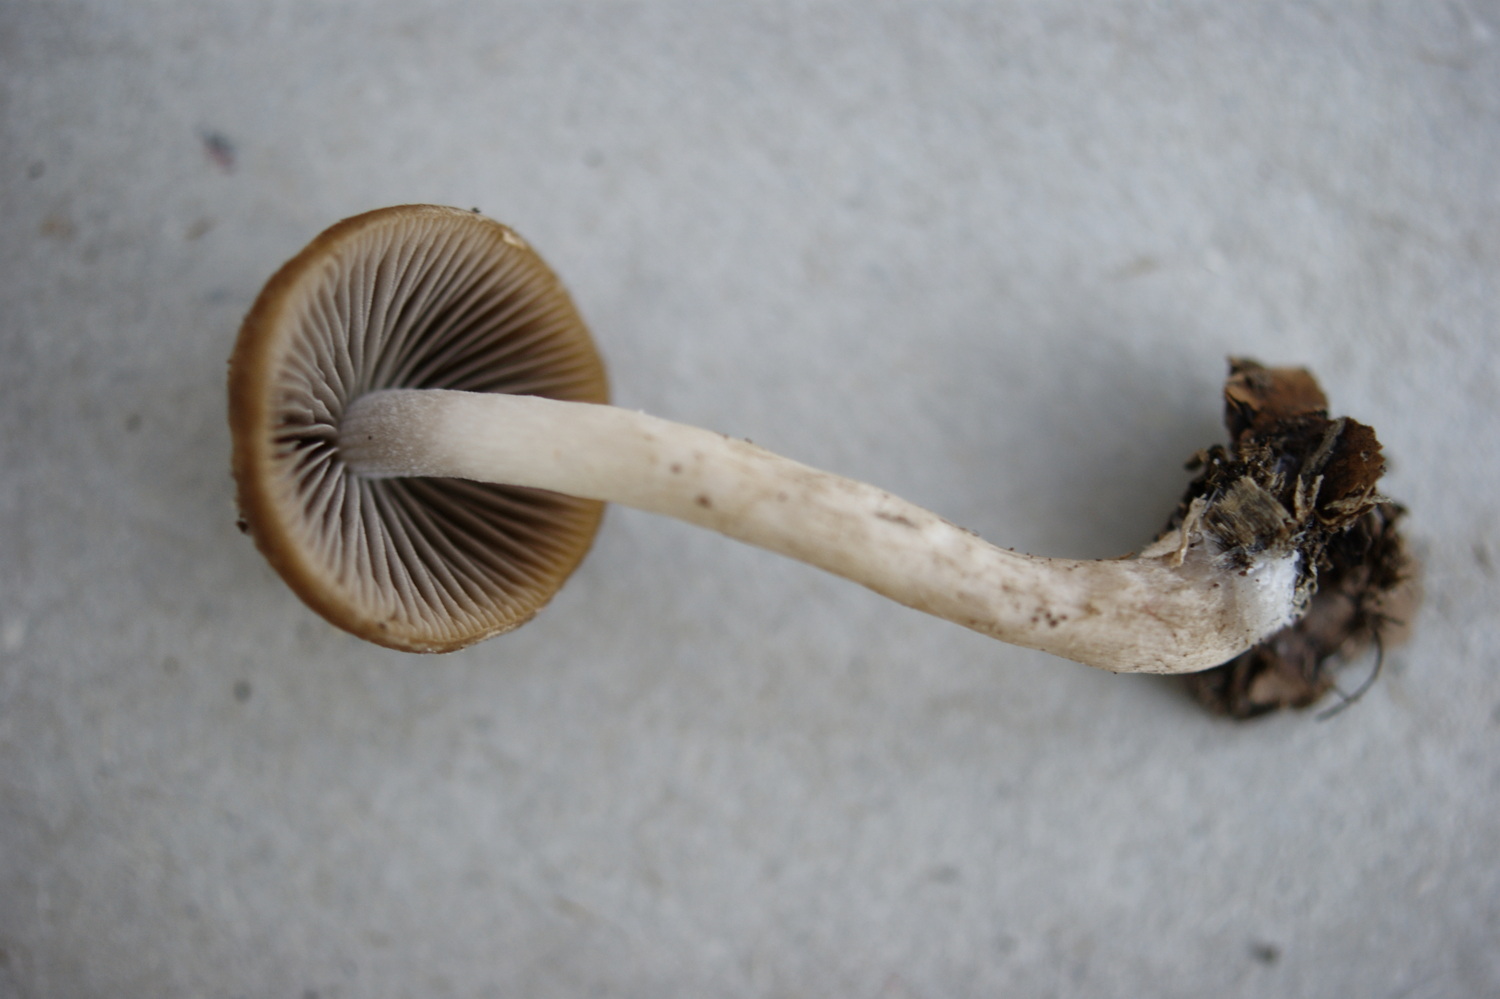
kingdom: Fungi
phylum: Basidiomycota
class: Agaricomycetes
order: Agaricales
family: Psathyrellaceae
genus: Psathyrella
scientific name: Psathyrella lutensis
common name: hjulspor-mørkhat
